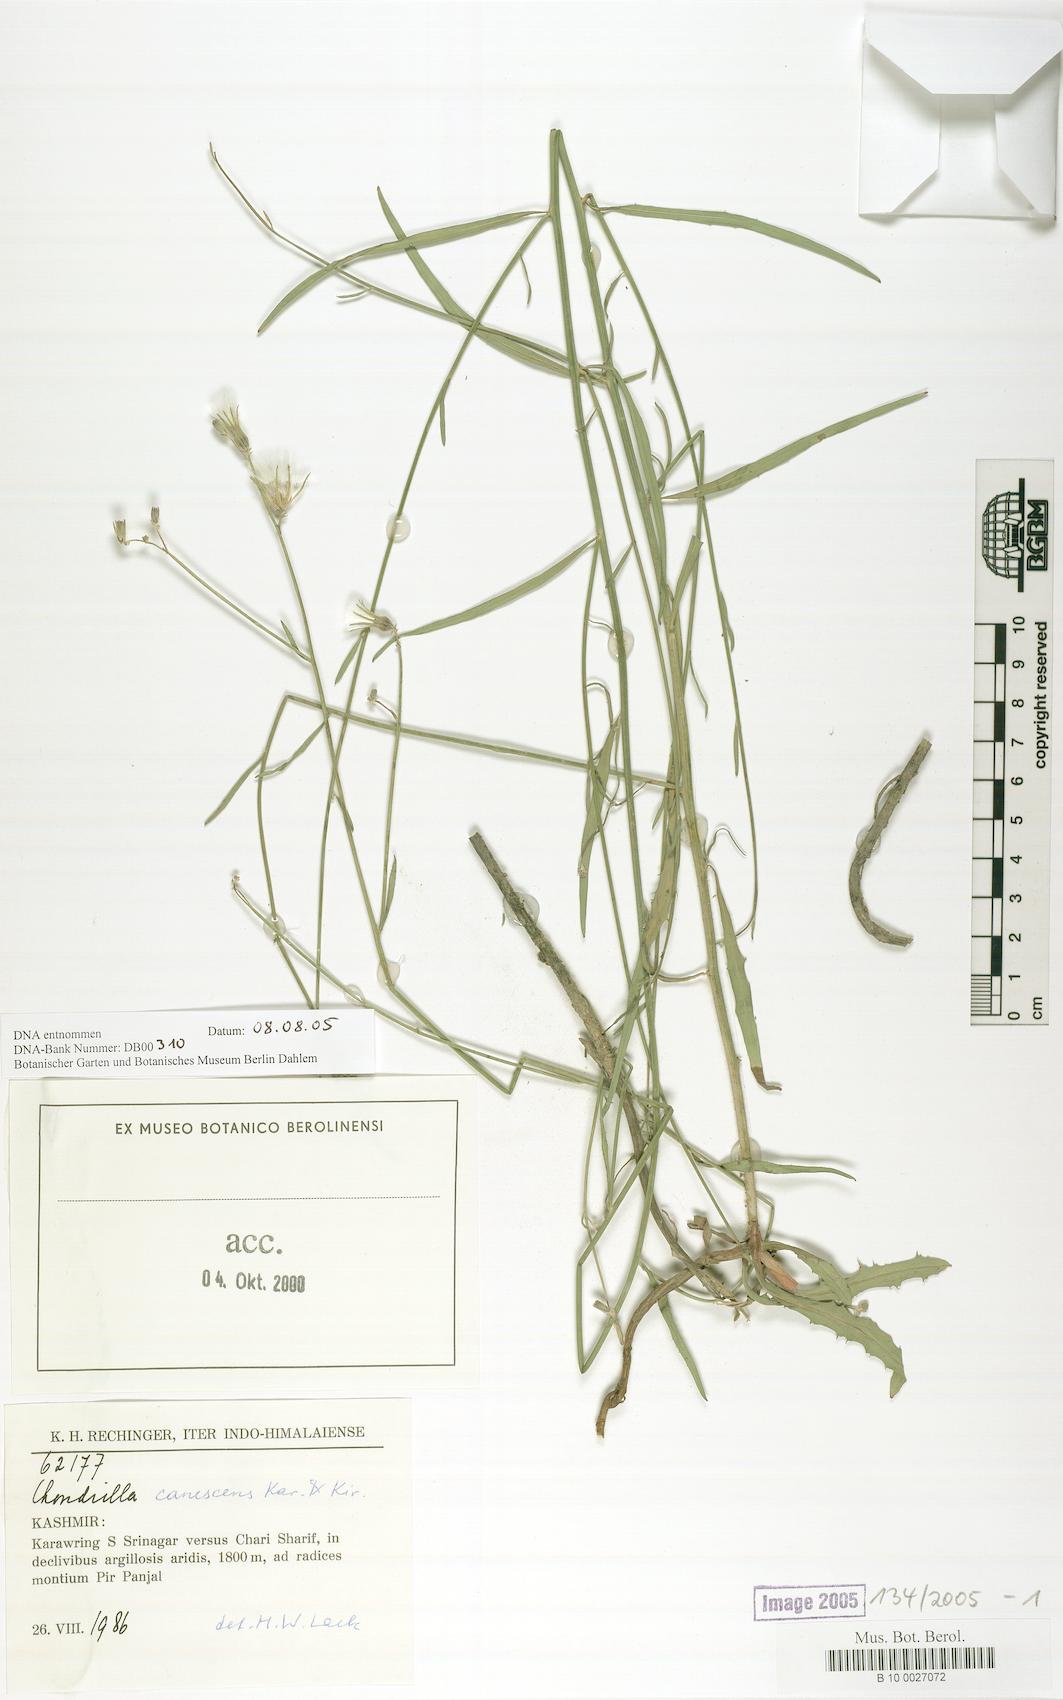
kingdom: Plantae
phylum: Tracheophyta
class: Magnoliopsida
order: Asterales
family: Asteraceae
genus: Chondrilla
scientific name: Chondrilla canescens
